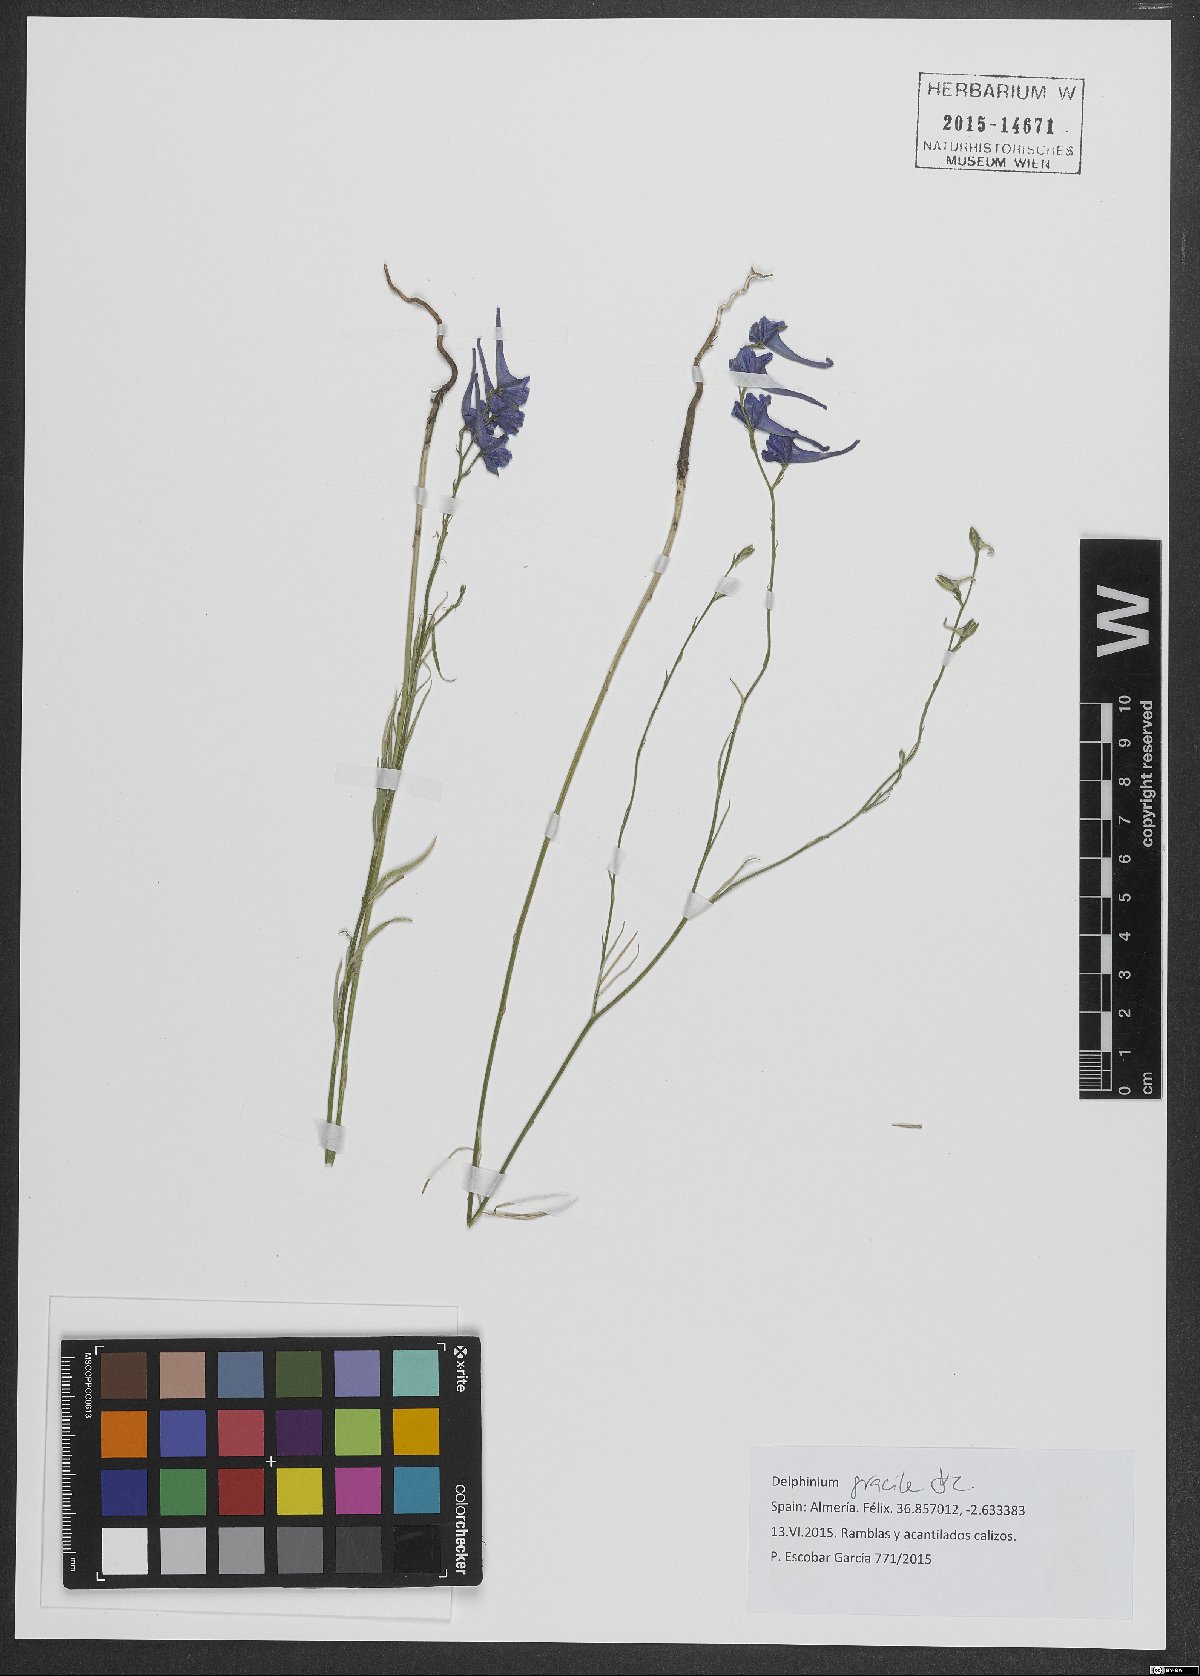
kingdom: Plantae
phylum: Tracheophyta
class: Magnoliopsida
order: Ranunculales
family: Ranunculaceae
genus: Delphinium
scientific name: Delphinium gracile
